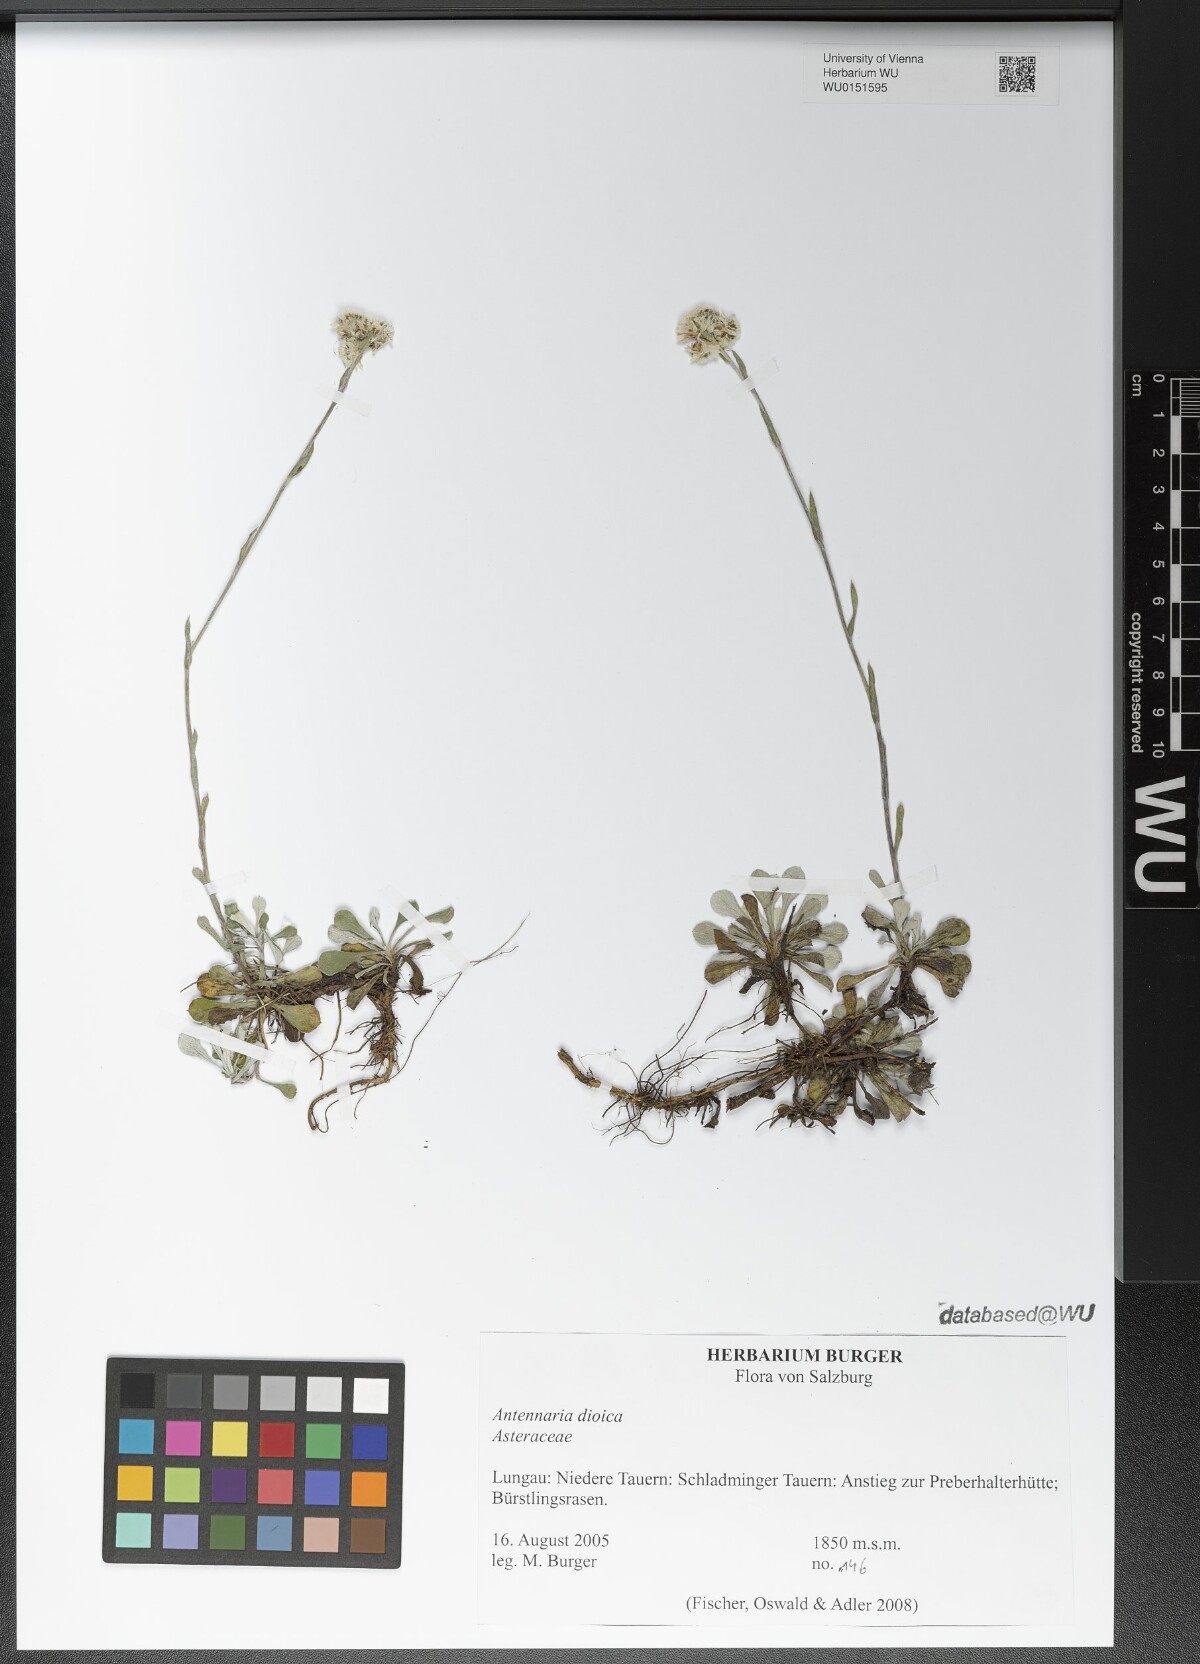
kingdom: Plantae
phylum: Tracheophyta
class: Magnoliopsida
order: Asterales
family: Asteraceae
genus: Antennaria
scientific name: Antennaria dioica
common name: Mountain everlasting
